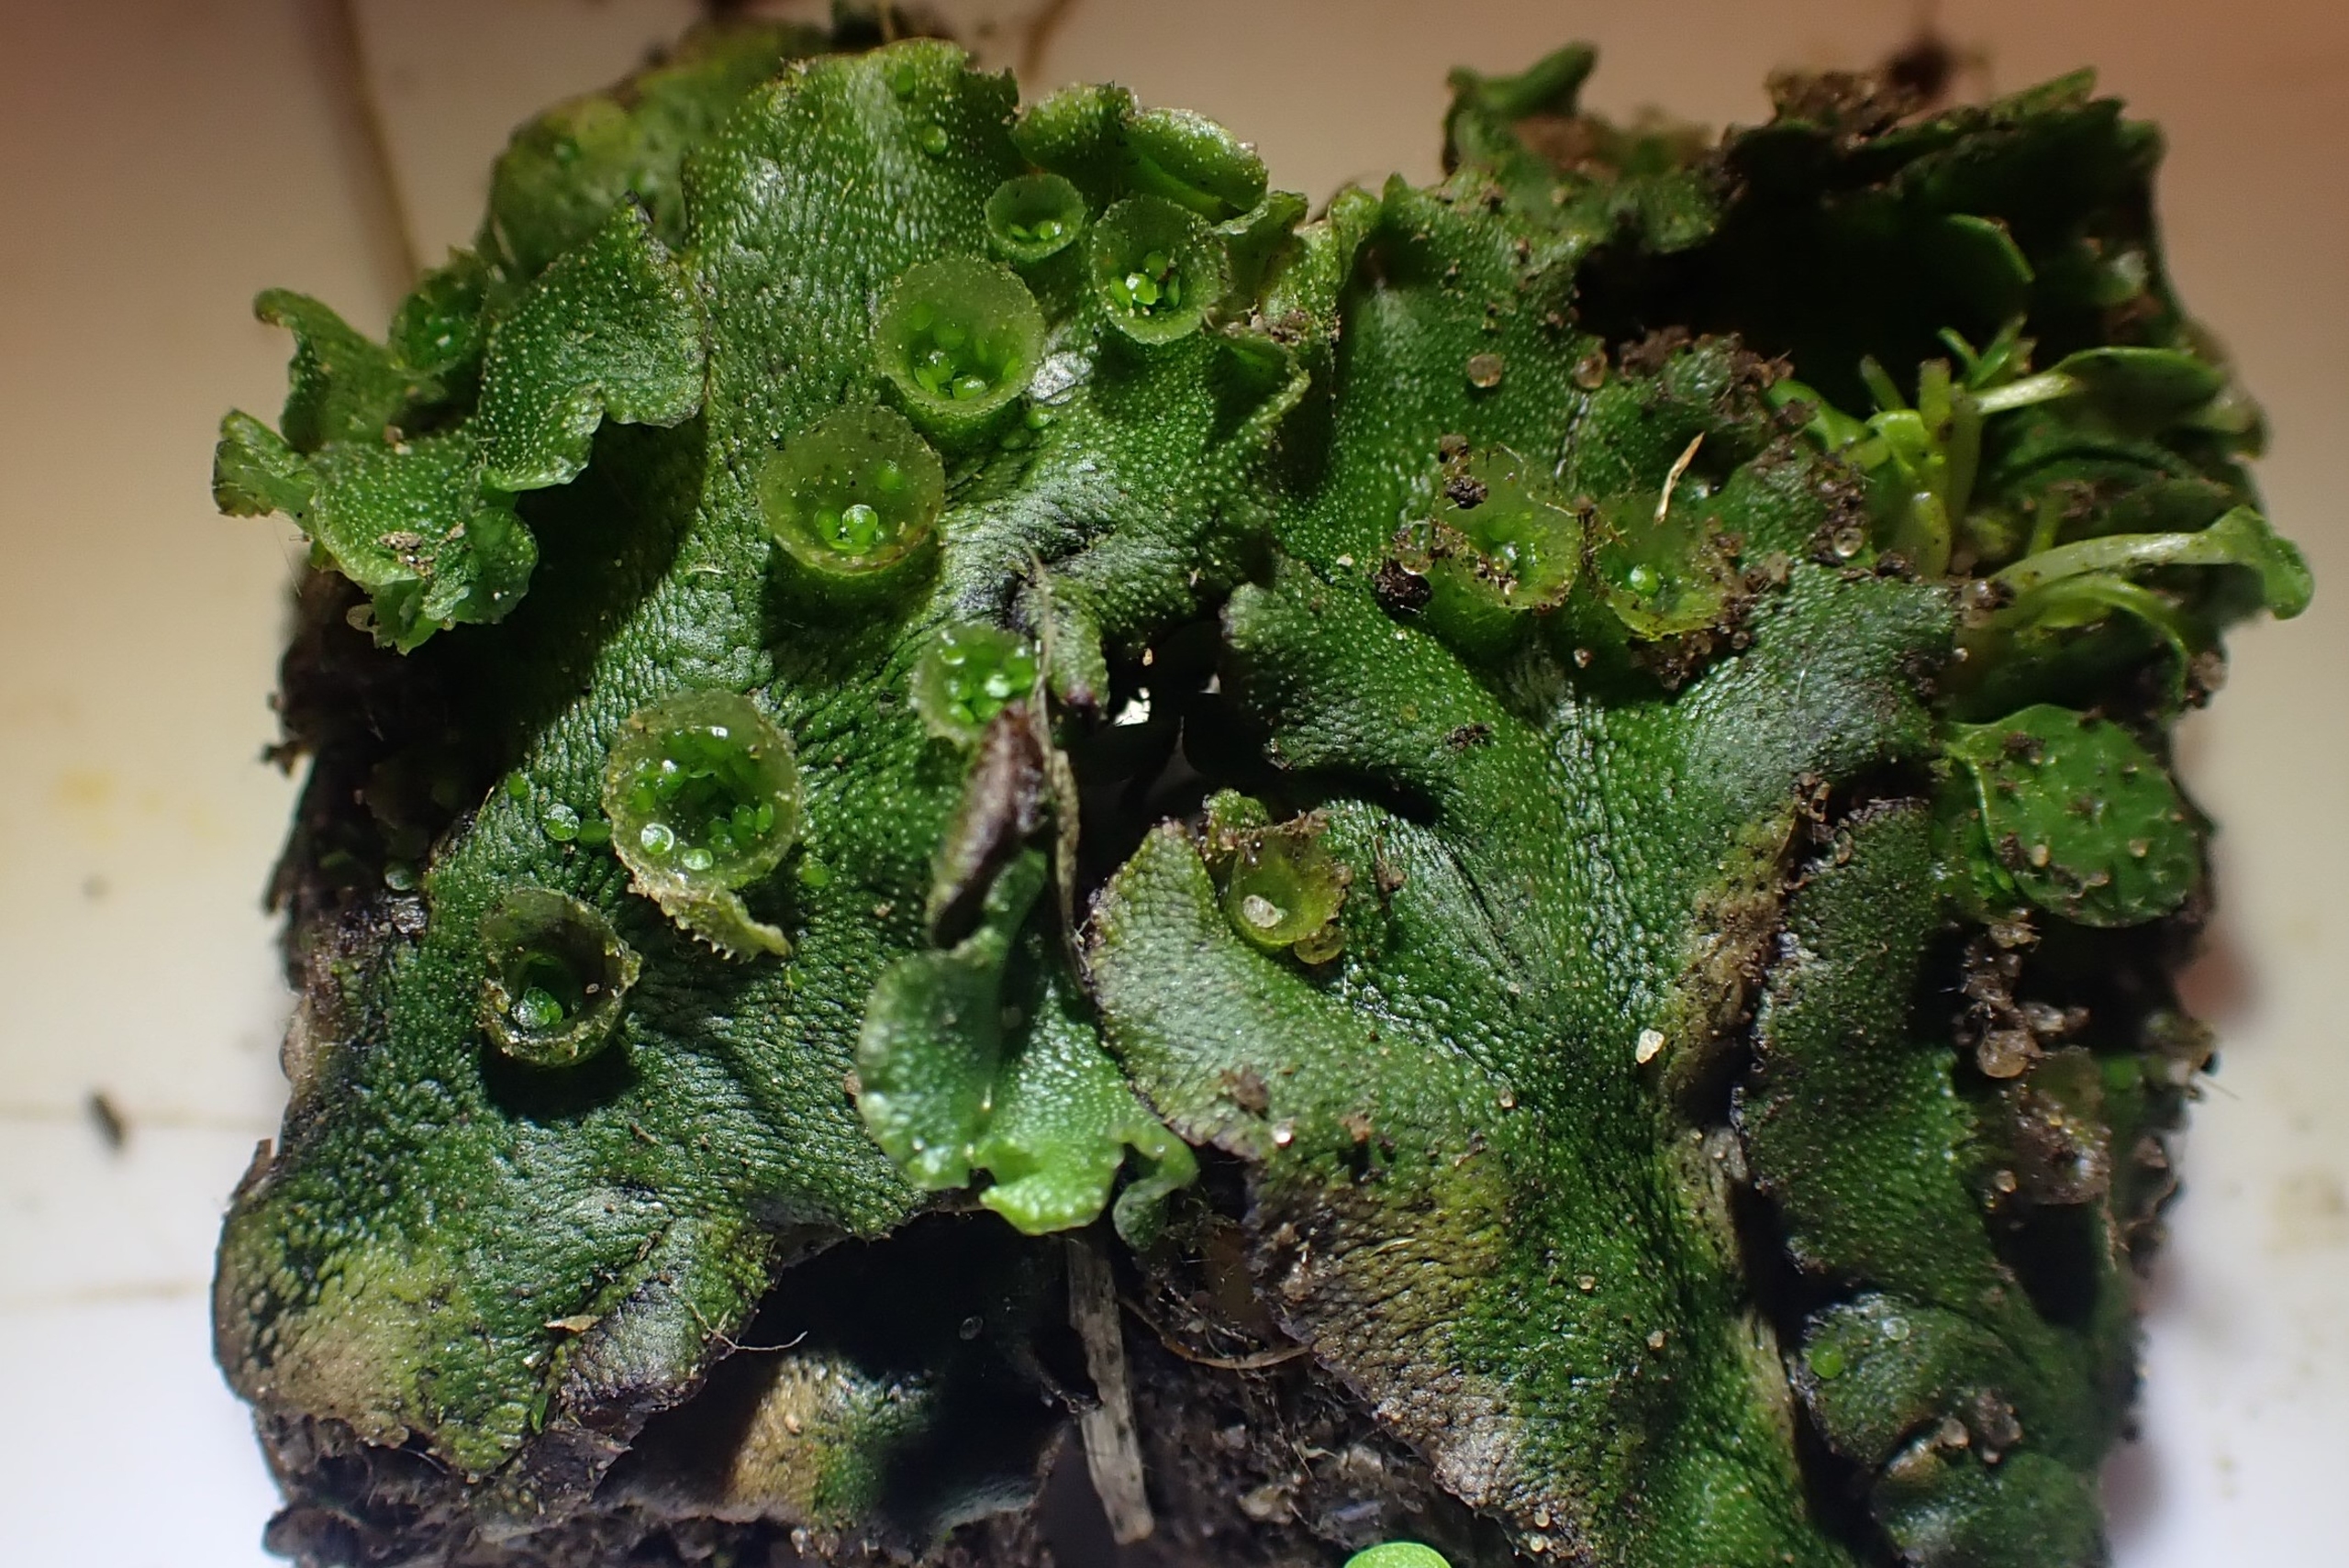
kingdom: Plantae
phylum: Marchantiophyta
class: Marchantiopsida
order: Marchantiales
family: Marchantiaceae
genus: Marchantia
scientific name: Marchantia polymorpha
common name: Almindelig lungemos (underart)
